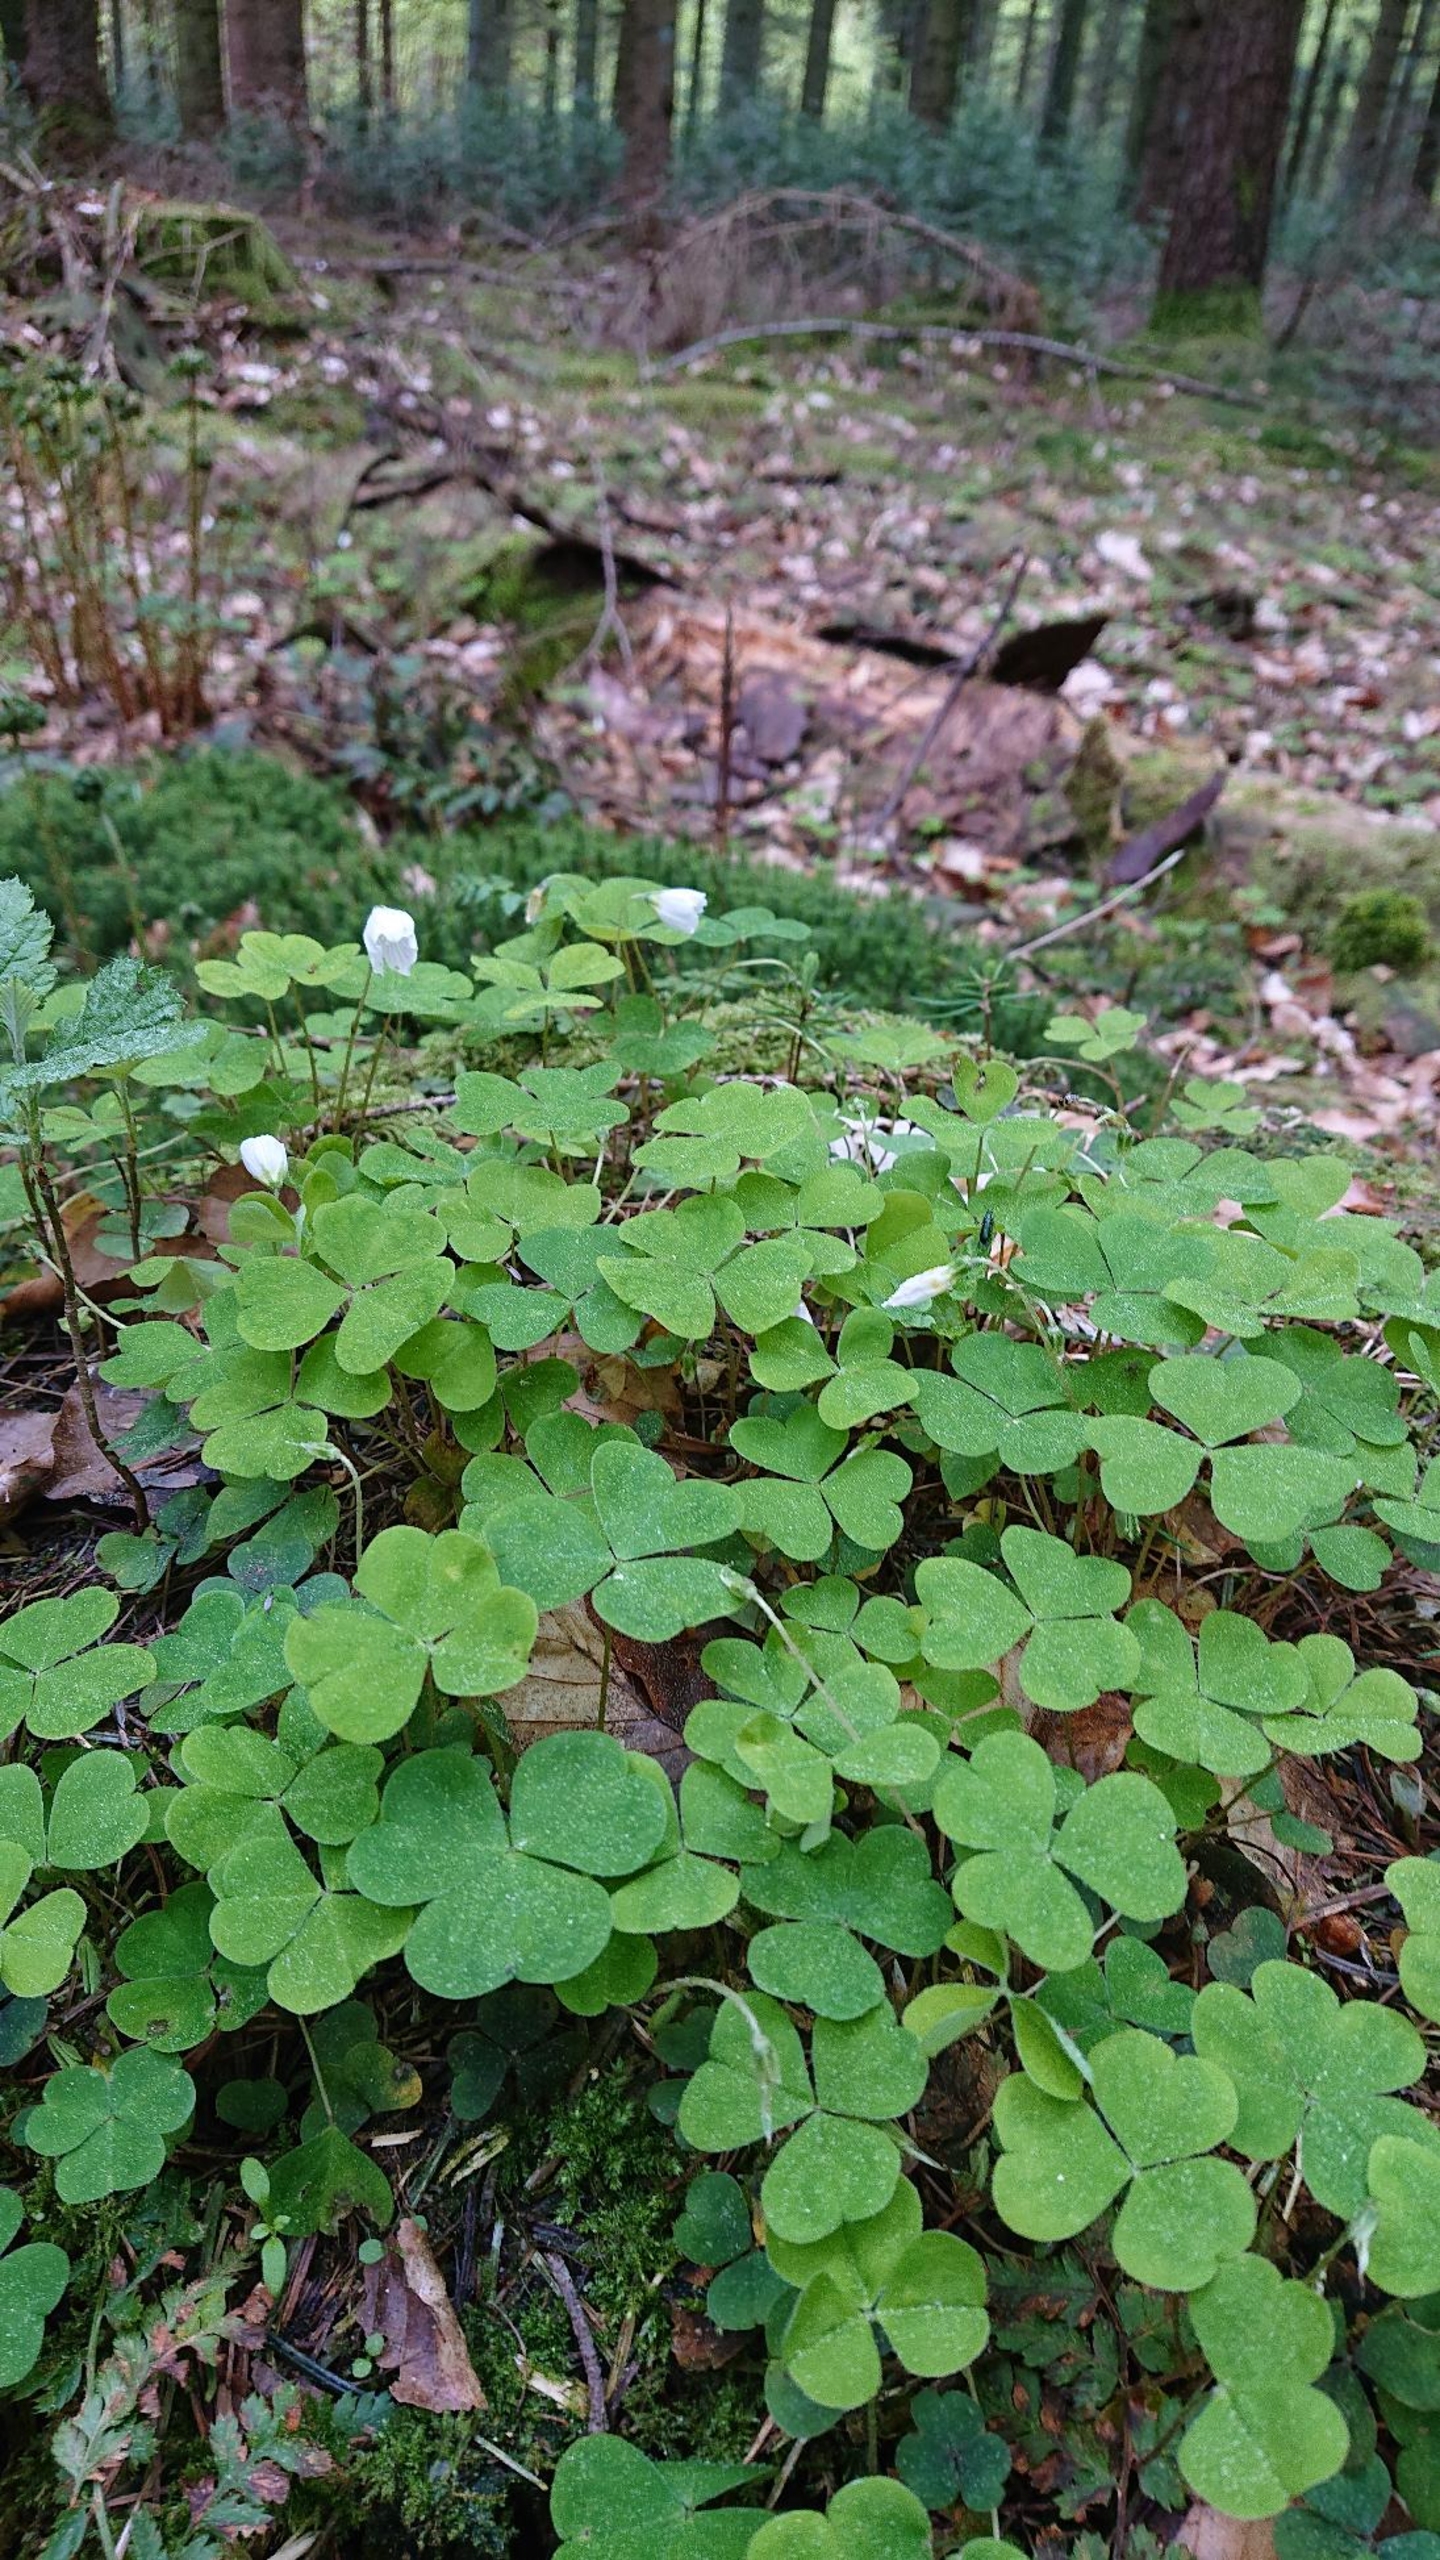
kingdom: Plantae
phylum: Tracheophyta
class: Magnoliopsida
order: Oxalidales
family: Oxalidaceae
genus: Oxalis
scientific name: Oxalis acetosella
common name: Skovsyre
